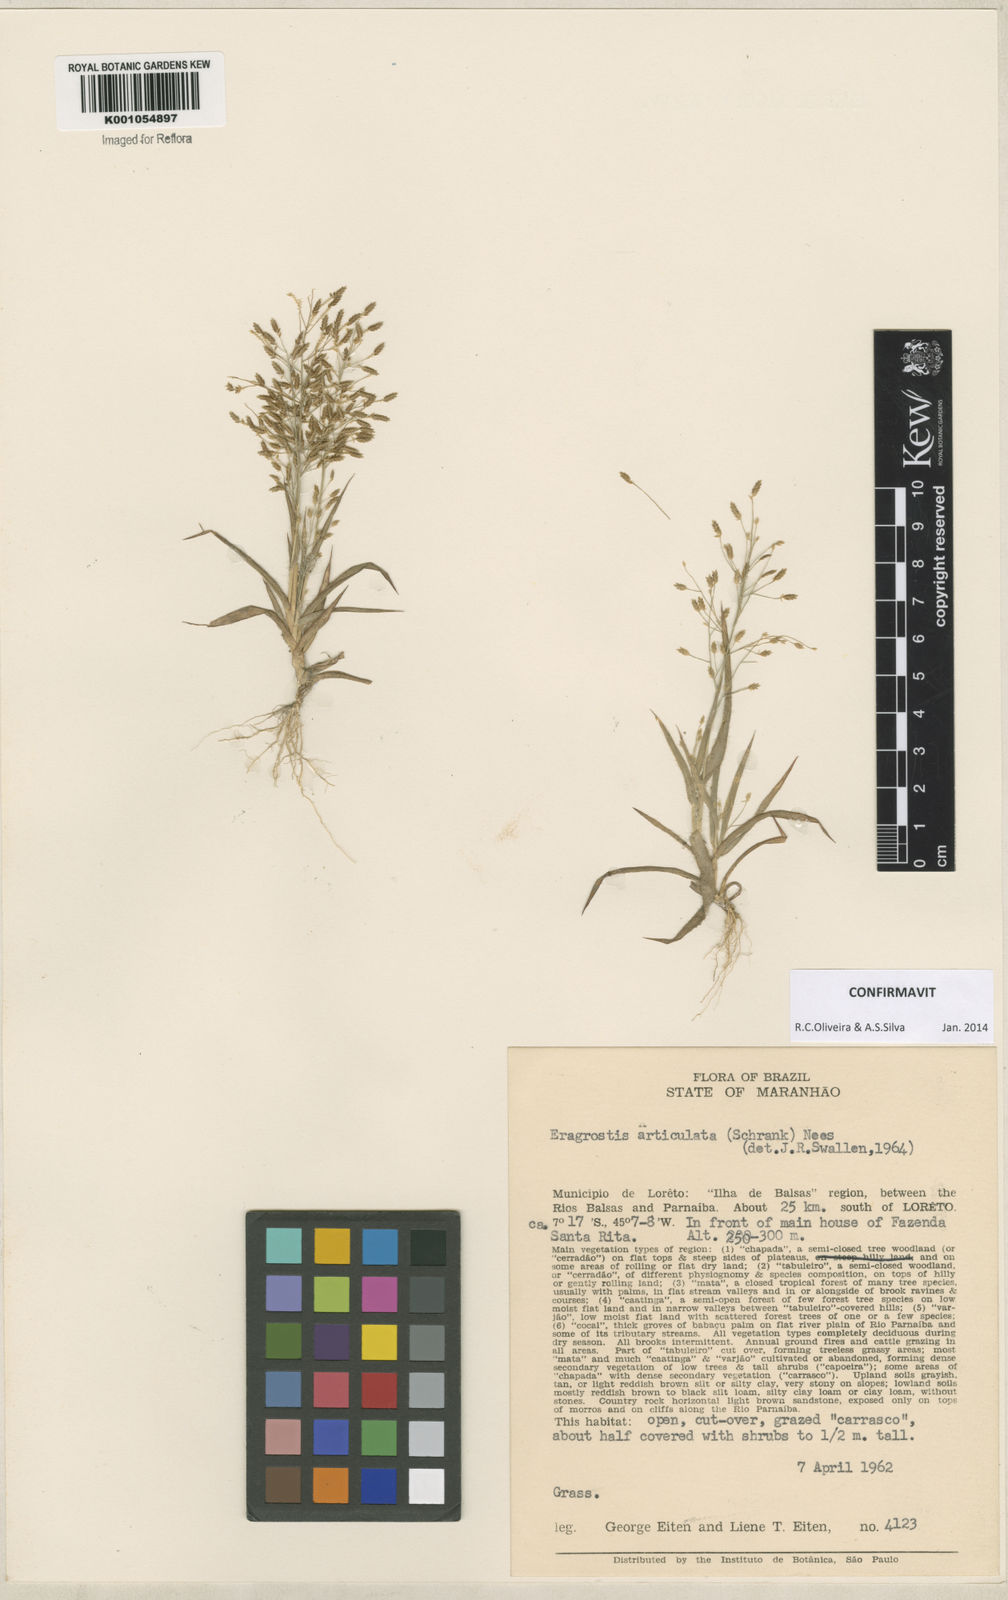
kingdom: Plantae
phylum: Tracheophyta
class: Liliopsida
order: Poales
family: Poaceae
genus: Eragrostis
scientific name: Eragrostis articulata
